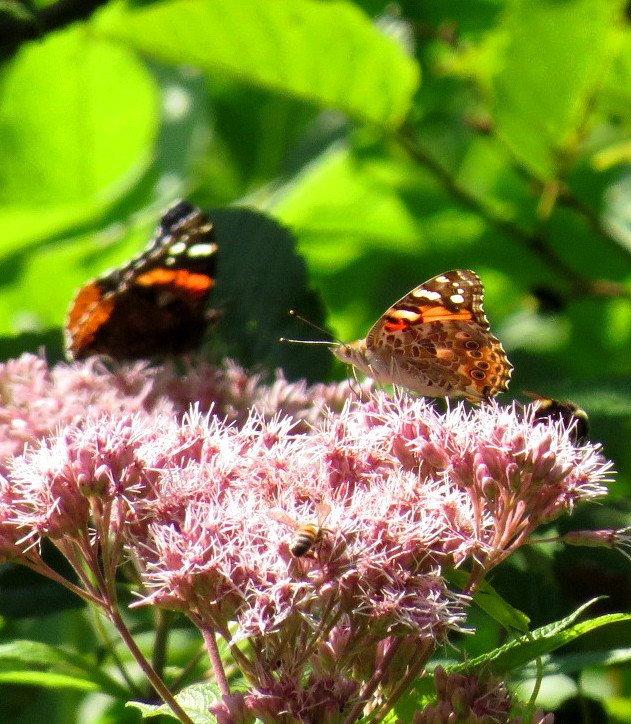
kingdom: Animalia
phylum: Arthropoda
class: Insecta
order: Lepidoptera
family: Nymphalidae
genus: Vanessa
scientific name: Vanessa cardui
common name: Painted Lady
